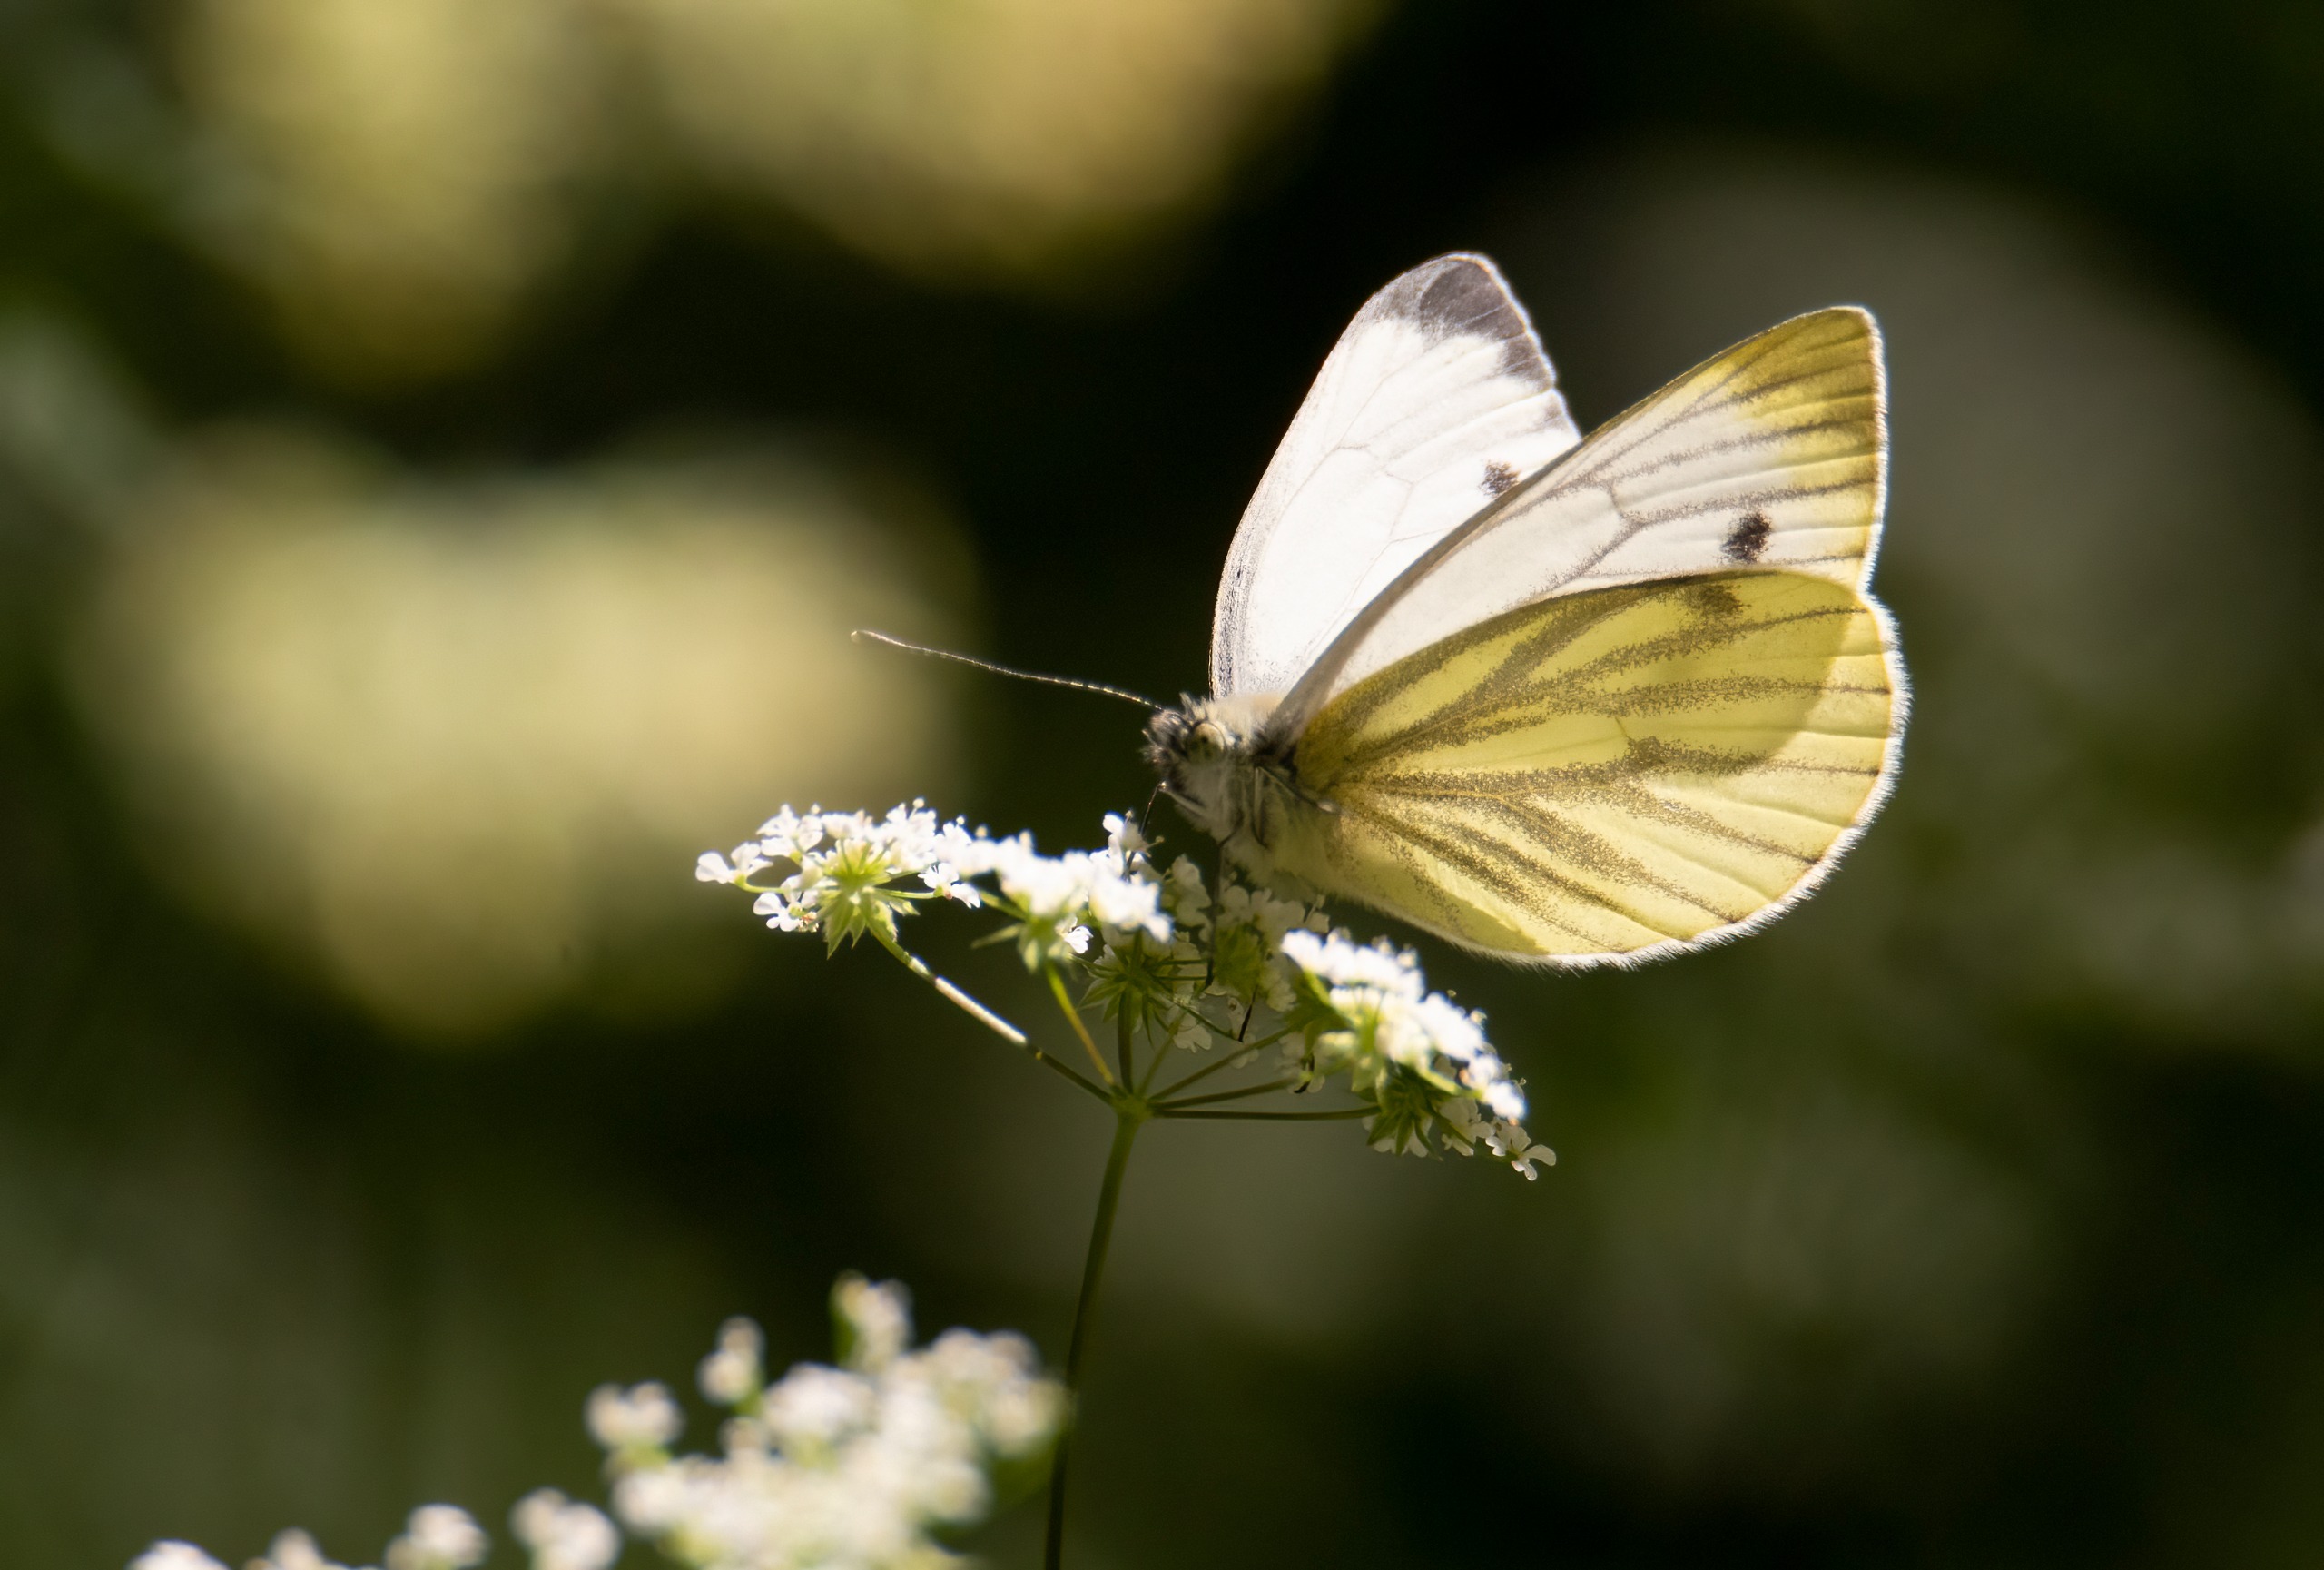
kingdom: Animalia
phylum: Arthropoda
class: Insecta
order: Lepidoptera
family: Pieridae
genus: Pieris
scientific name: Pieris napi
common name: Grønåret kålsommerfugl
